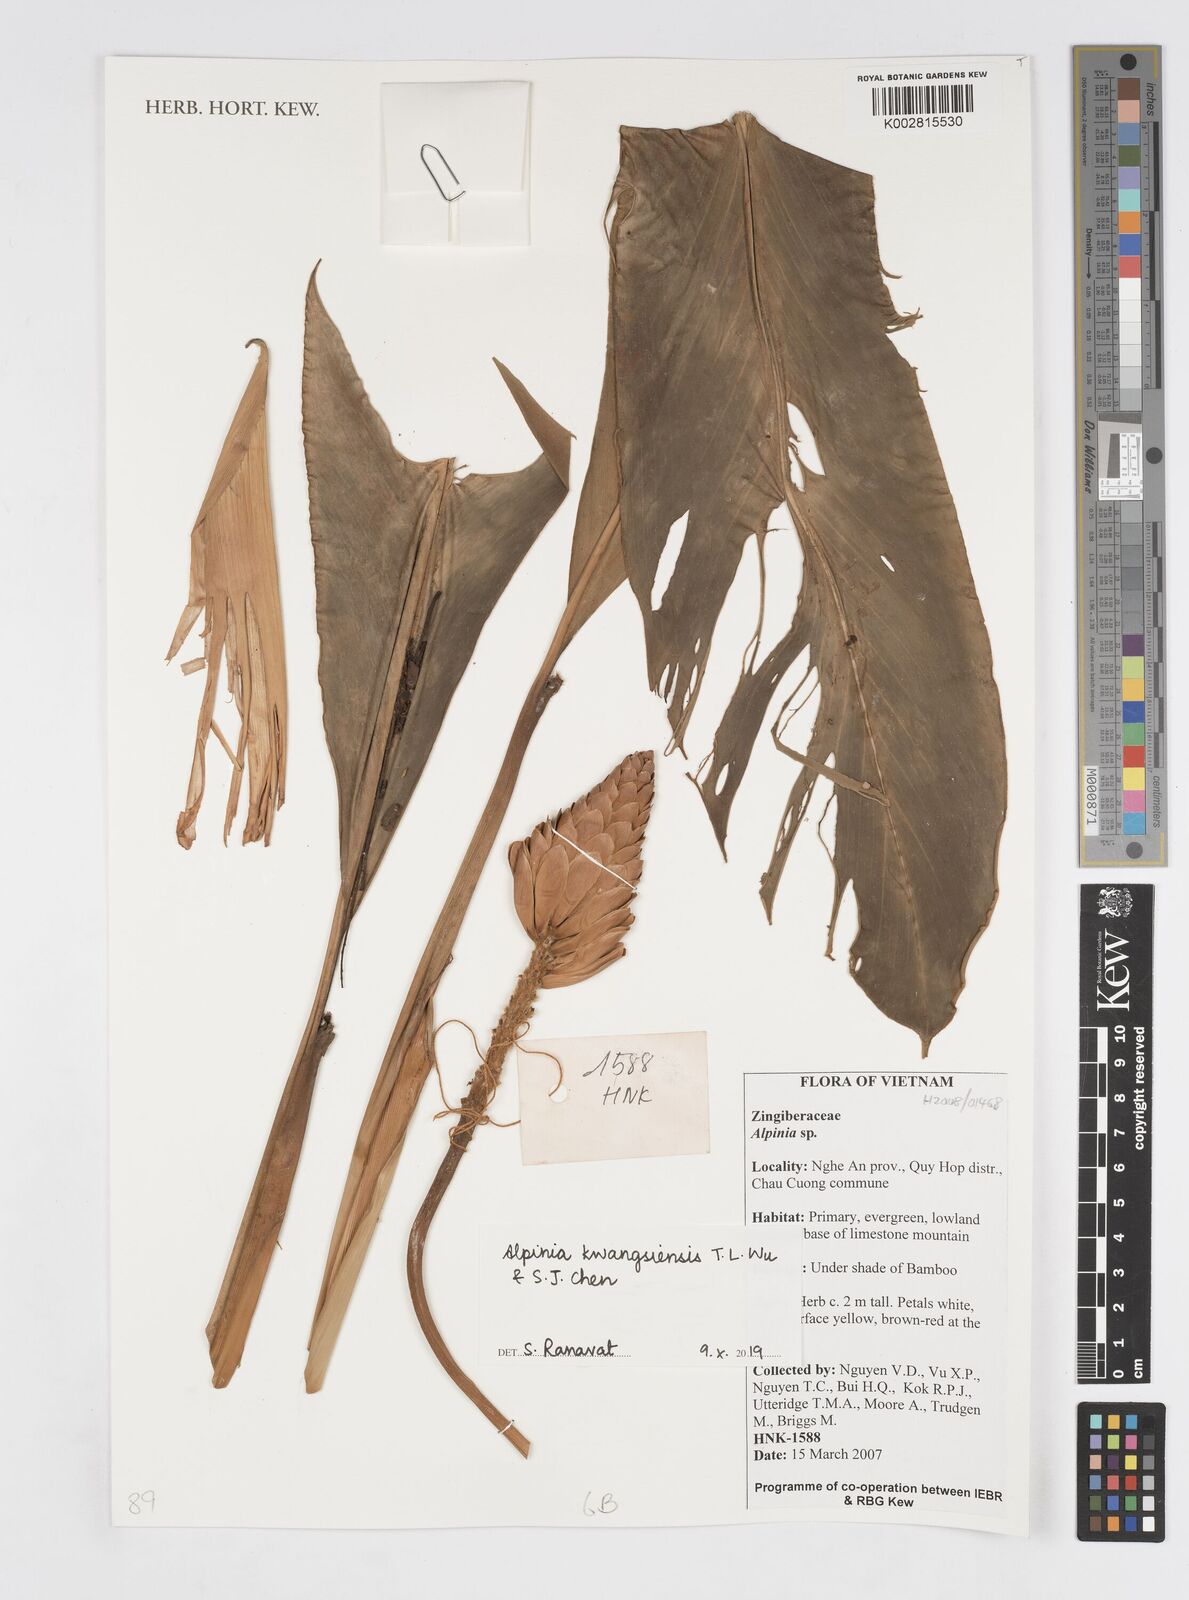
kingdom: Plantae
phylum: Tracheophyta
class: Liliopsida
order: Zingiberales
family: Zingiberaceae
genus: Alpinia
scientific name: Alpinia kwangsiensis
